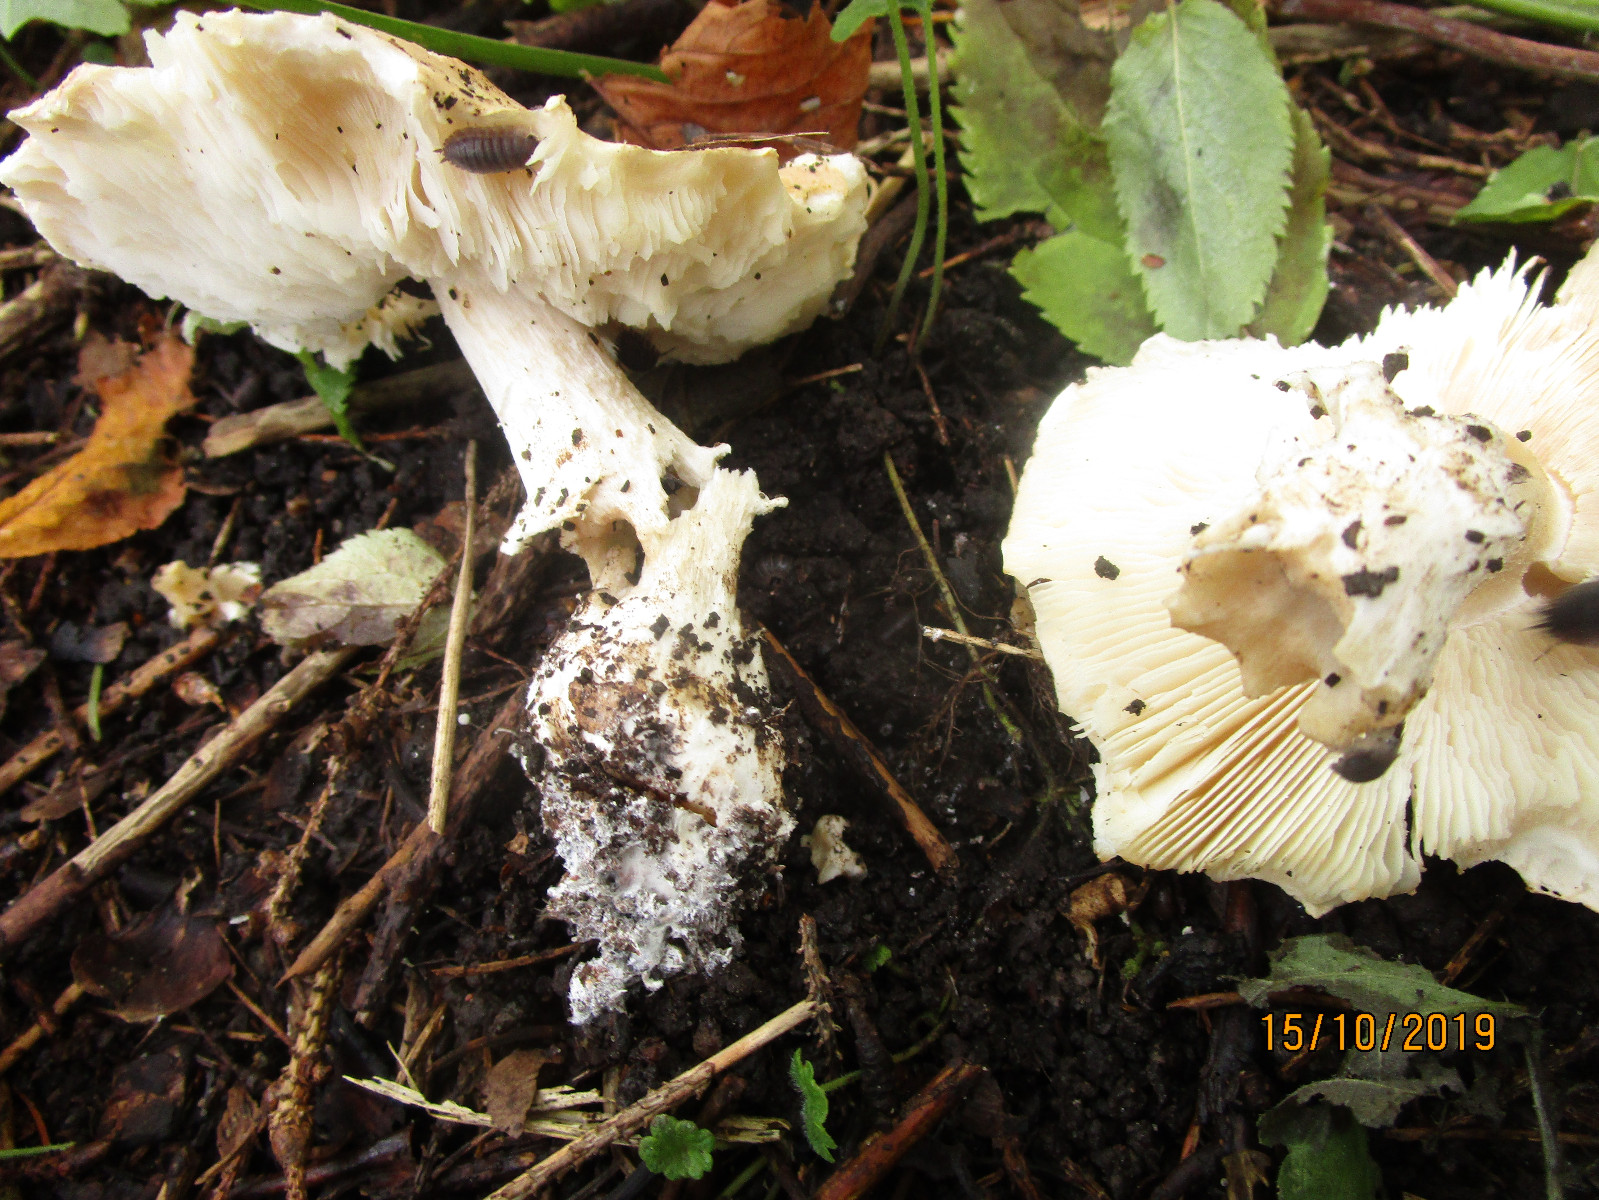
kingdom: Fungi
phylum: Basidiomycota
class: Agaricomycetes
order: Agaricales
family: Amanitaceae
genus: Limacellopsis
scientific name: Limacellopsis guttata
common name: tåre-snekkehat
